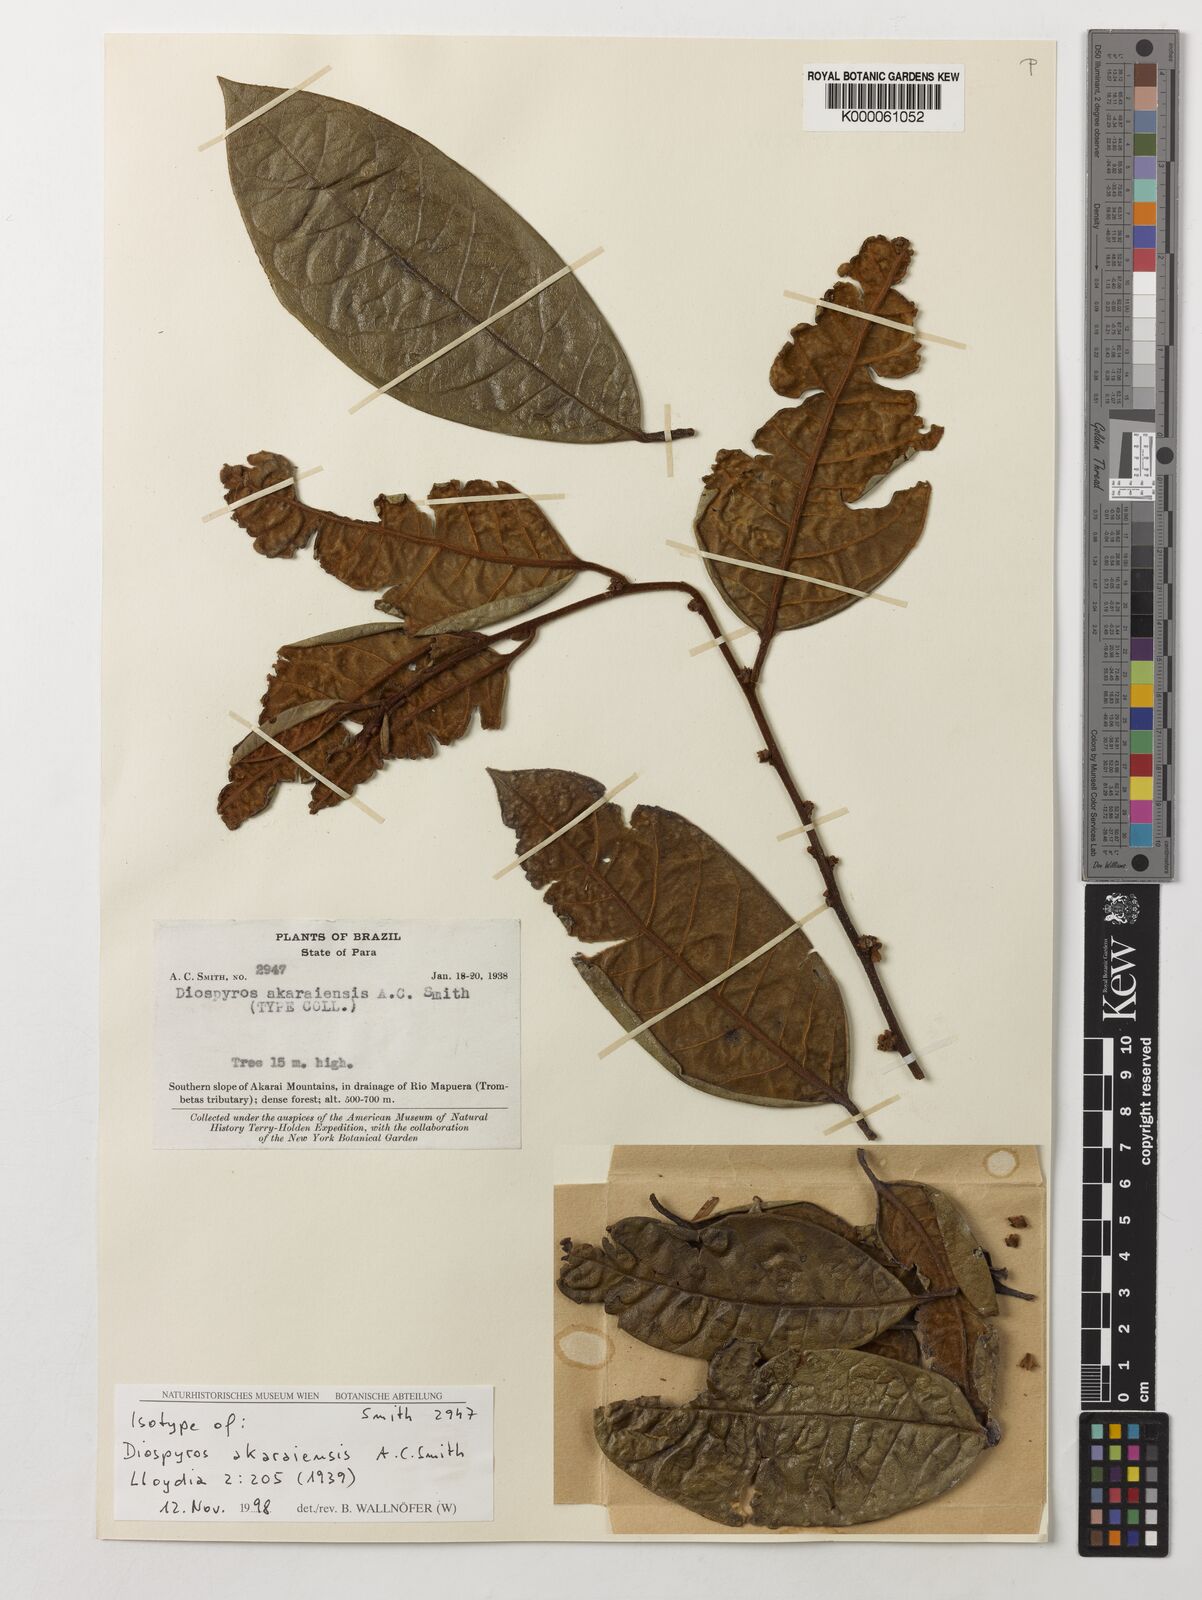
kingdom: Plantae
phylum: Tracheophyta
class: Magnoliopsida
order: Ericales
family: Ebenaceae
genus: Diospyros
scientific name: Diospyros guianensis
